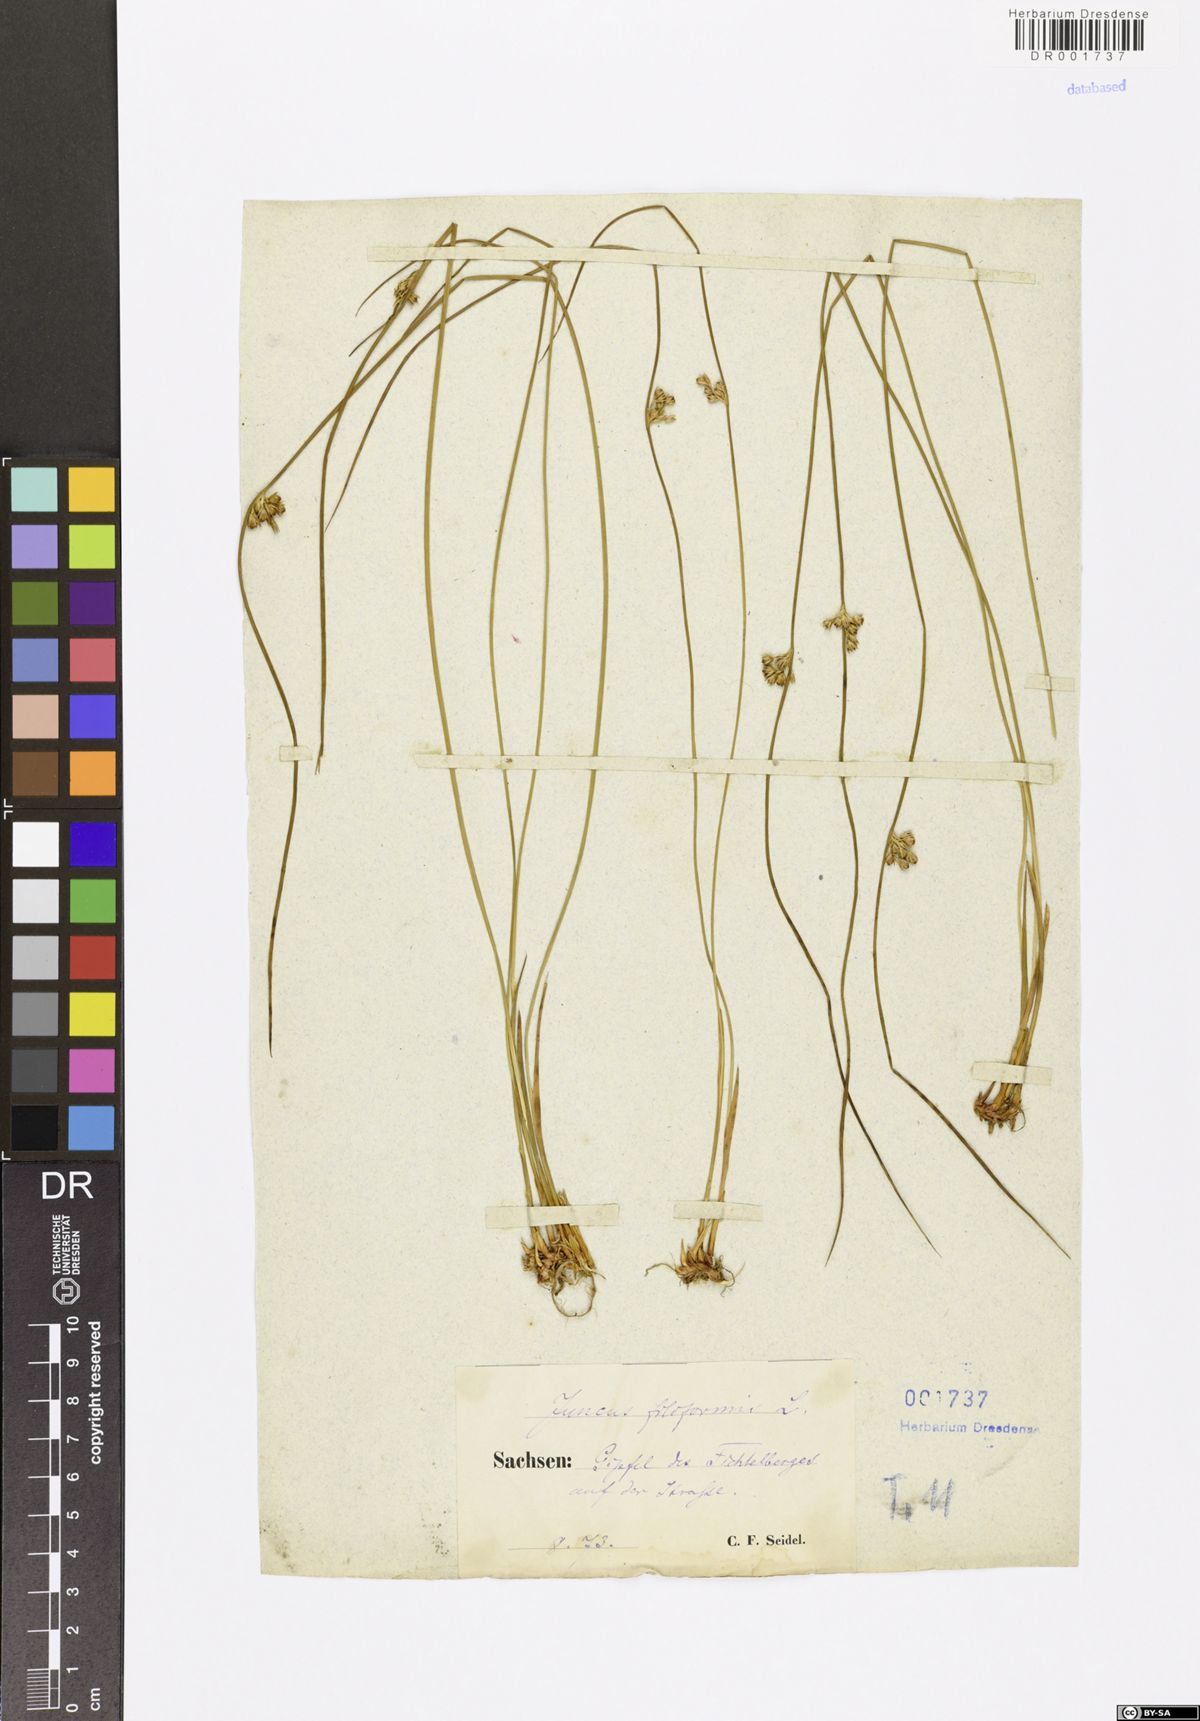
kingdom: Plantae
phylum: Tracheophyta
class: Liliopsida
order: Poales
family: Juncaceae
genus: Juncus
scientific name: Juncus inflexus
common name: Hard rush
